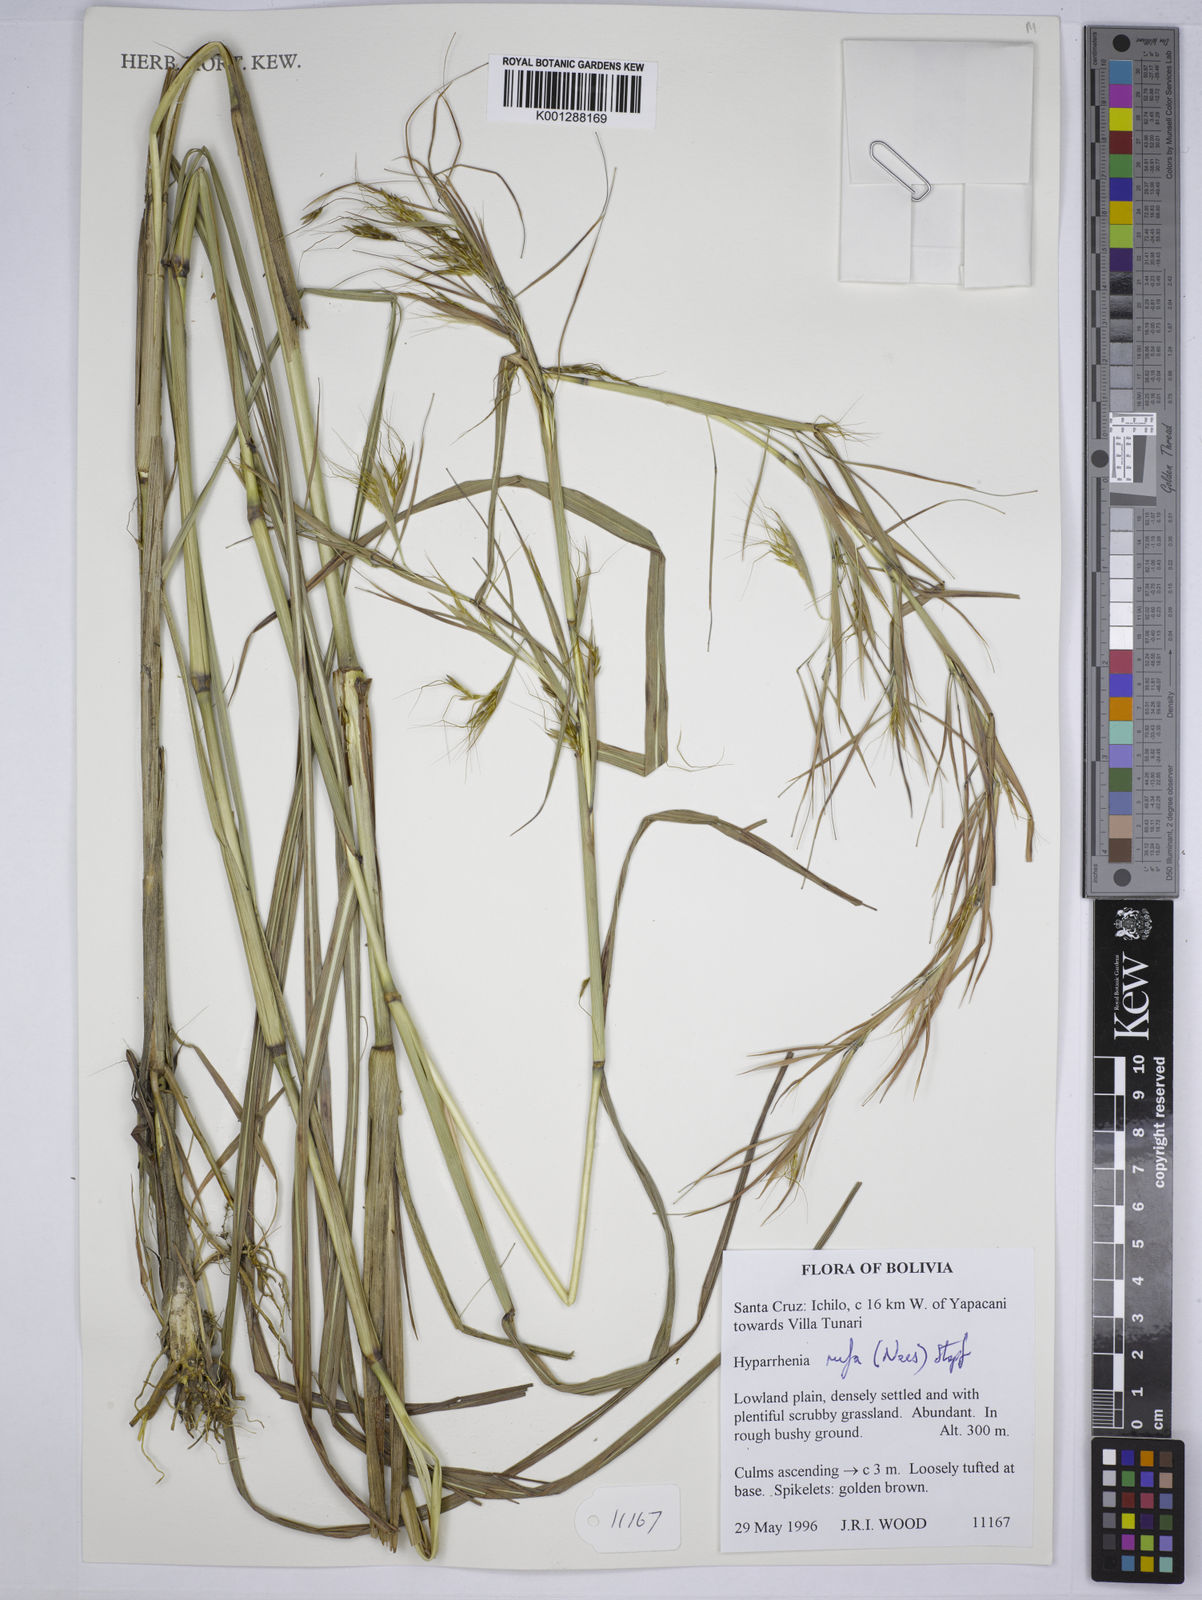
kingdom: Plantae
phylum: Tracheophyta
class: Liliopsida
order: Poales
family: Poaceae
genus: Hyparrhenia
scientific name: Hyparrhenia rufa
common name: Jaraguagrass
